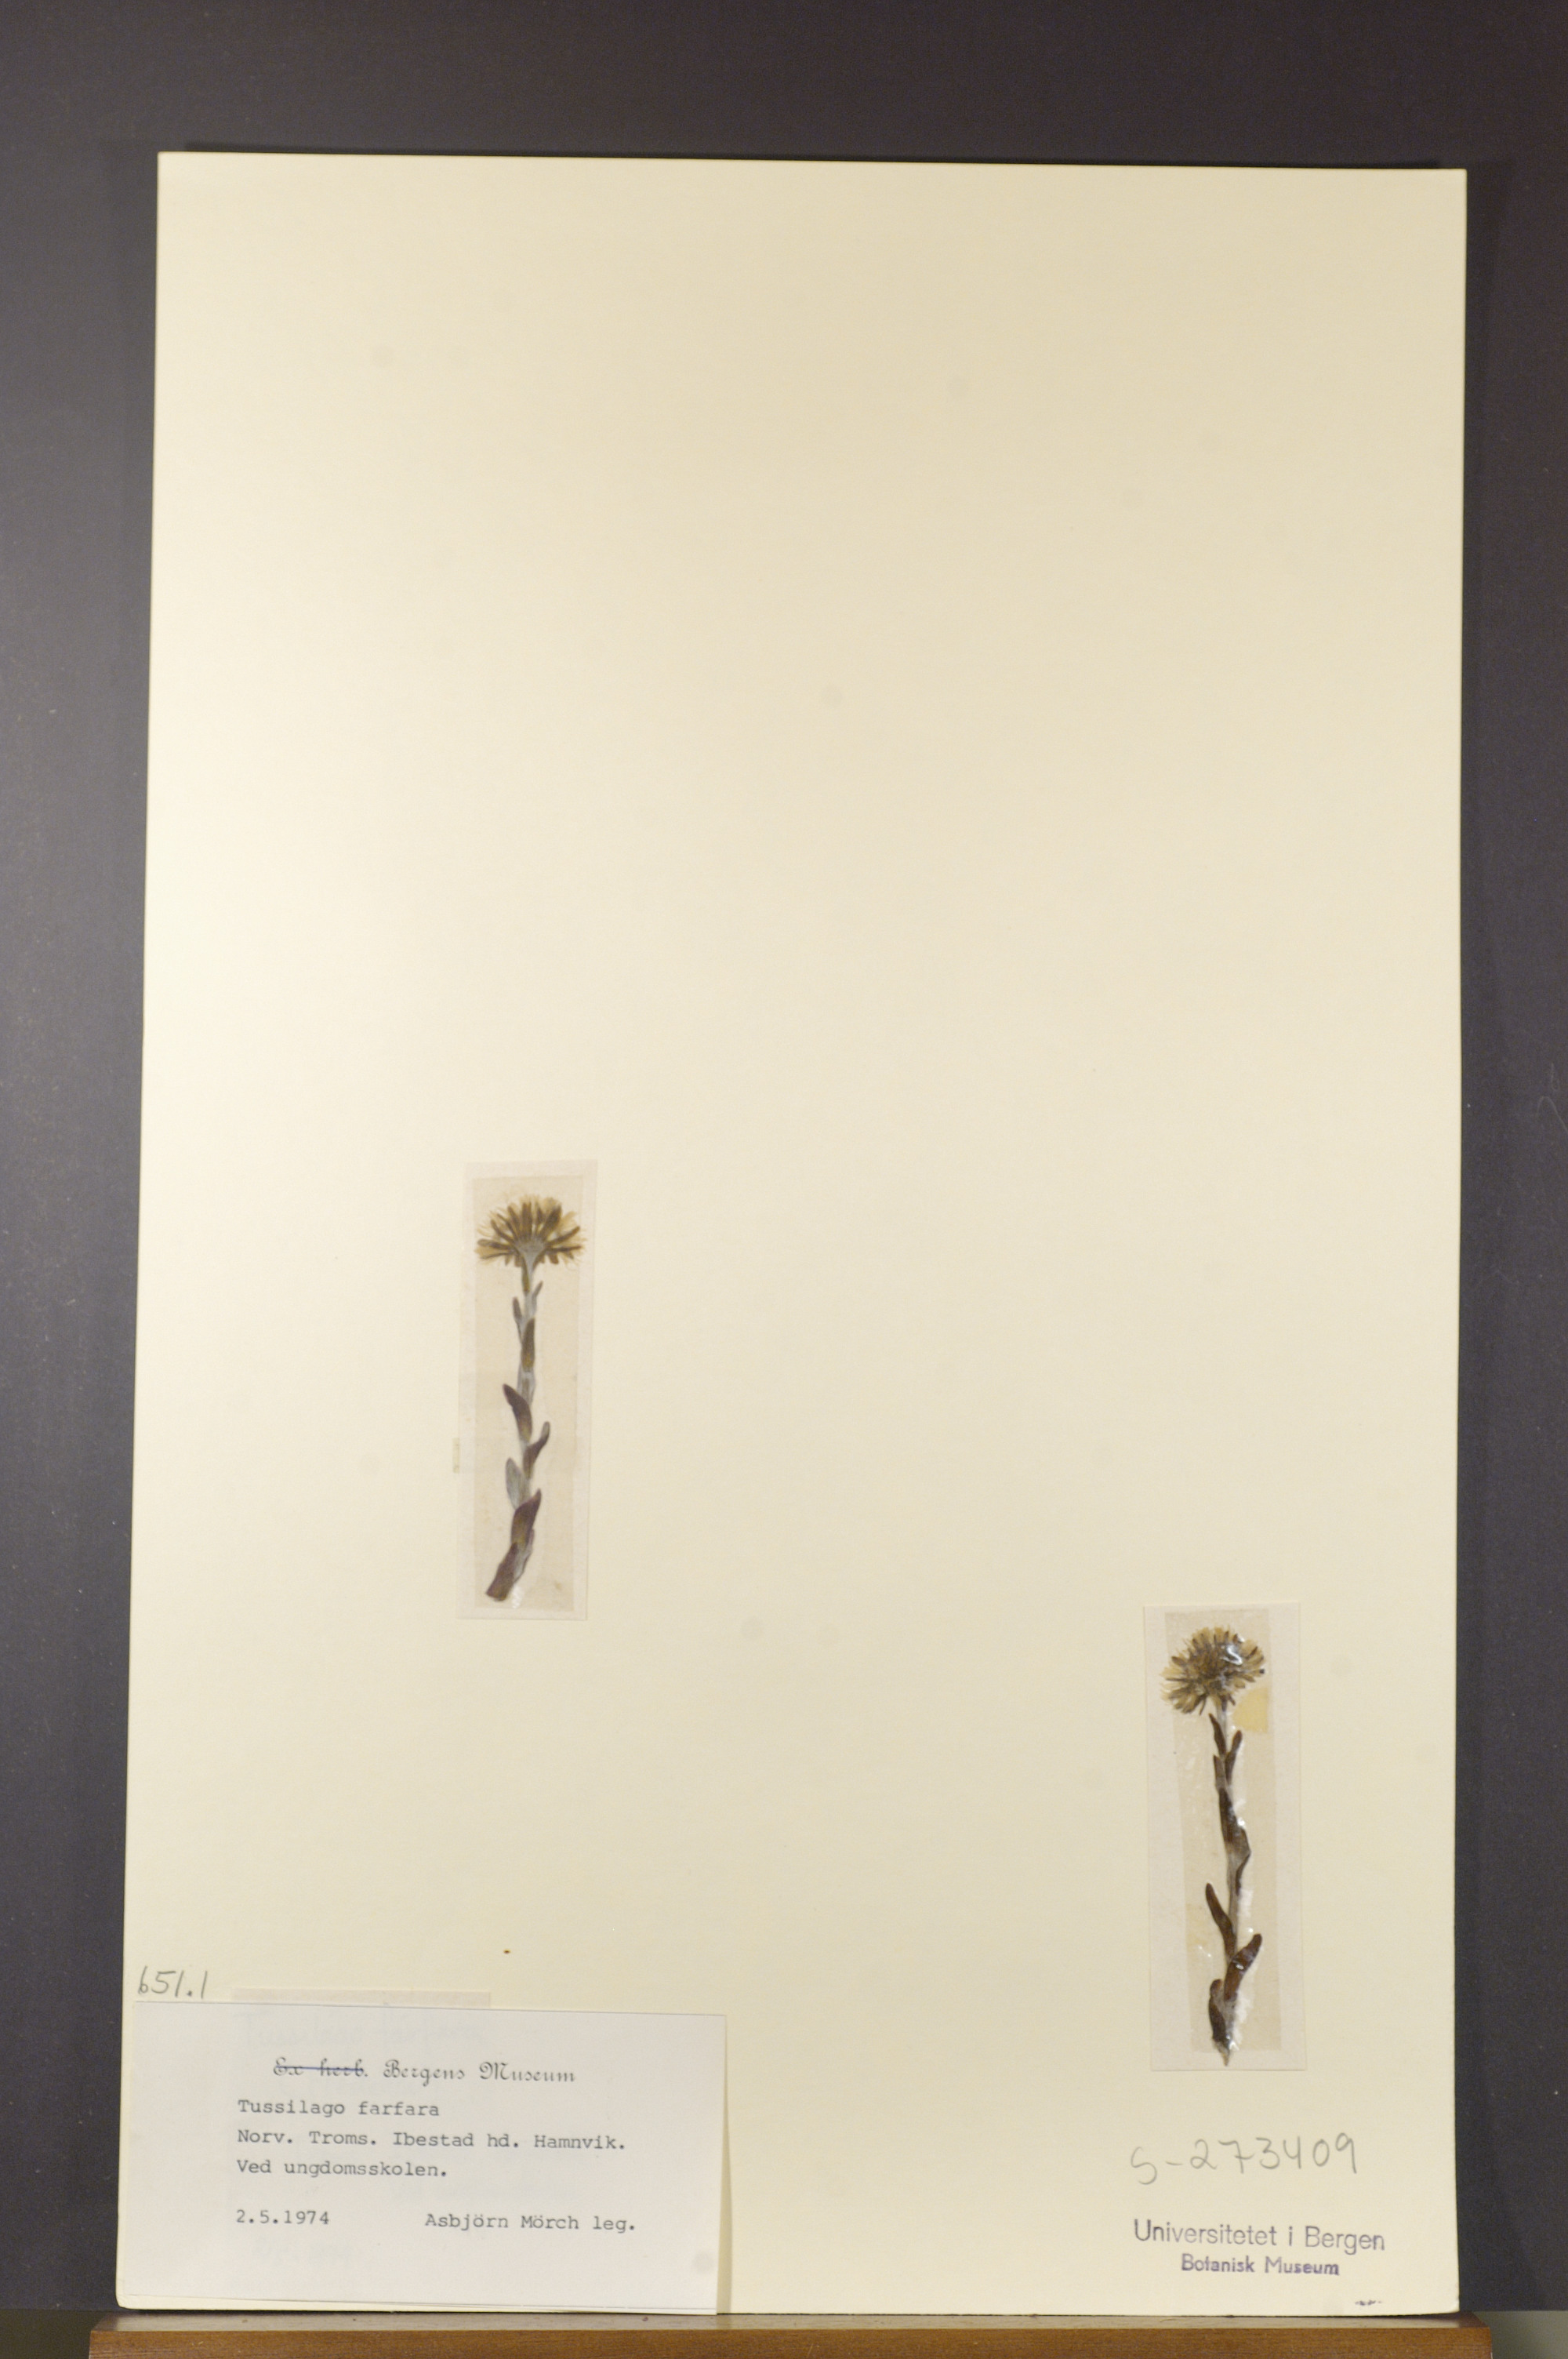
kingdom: Plantae
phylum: Tracheophyta
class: Magnoliopsida
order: Asterales
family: Asteraceae
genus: Tussilago
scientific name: Tussilago farfara
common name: Coltsfoot
